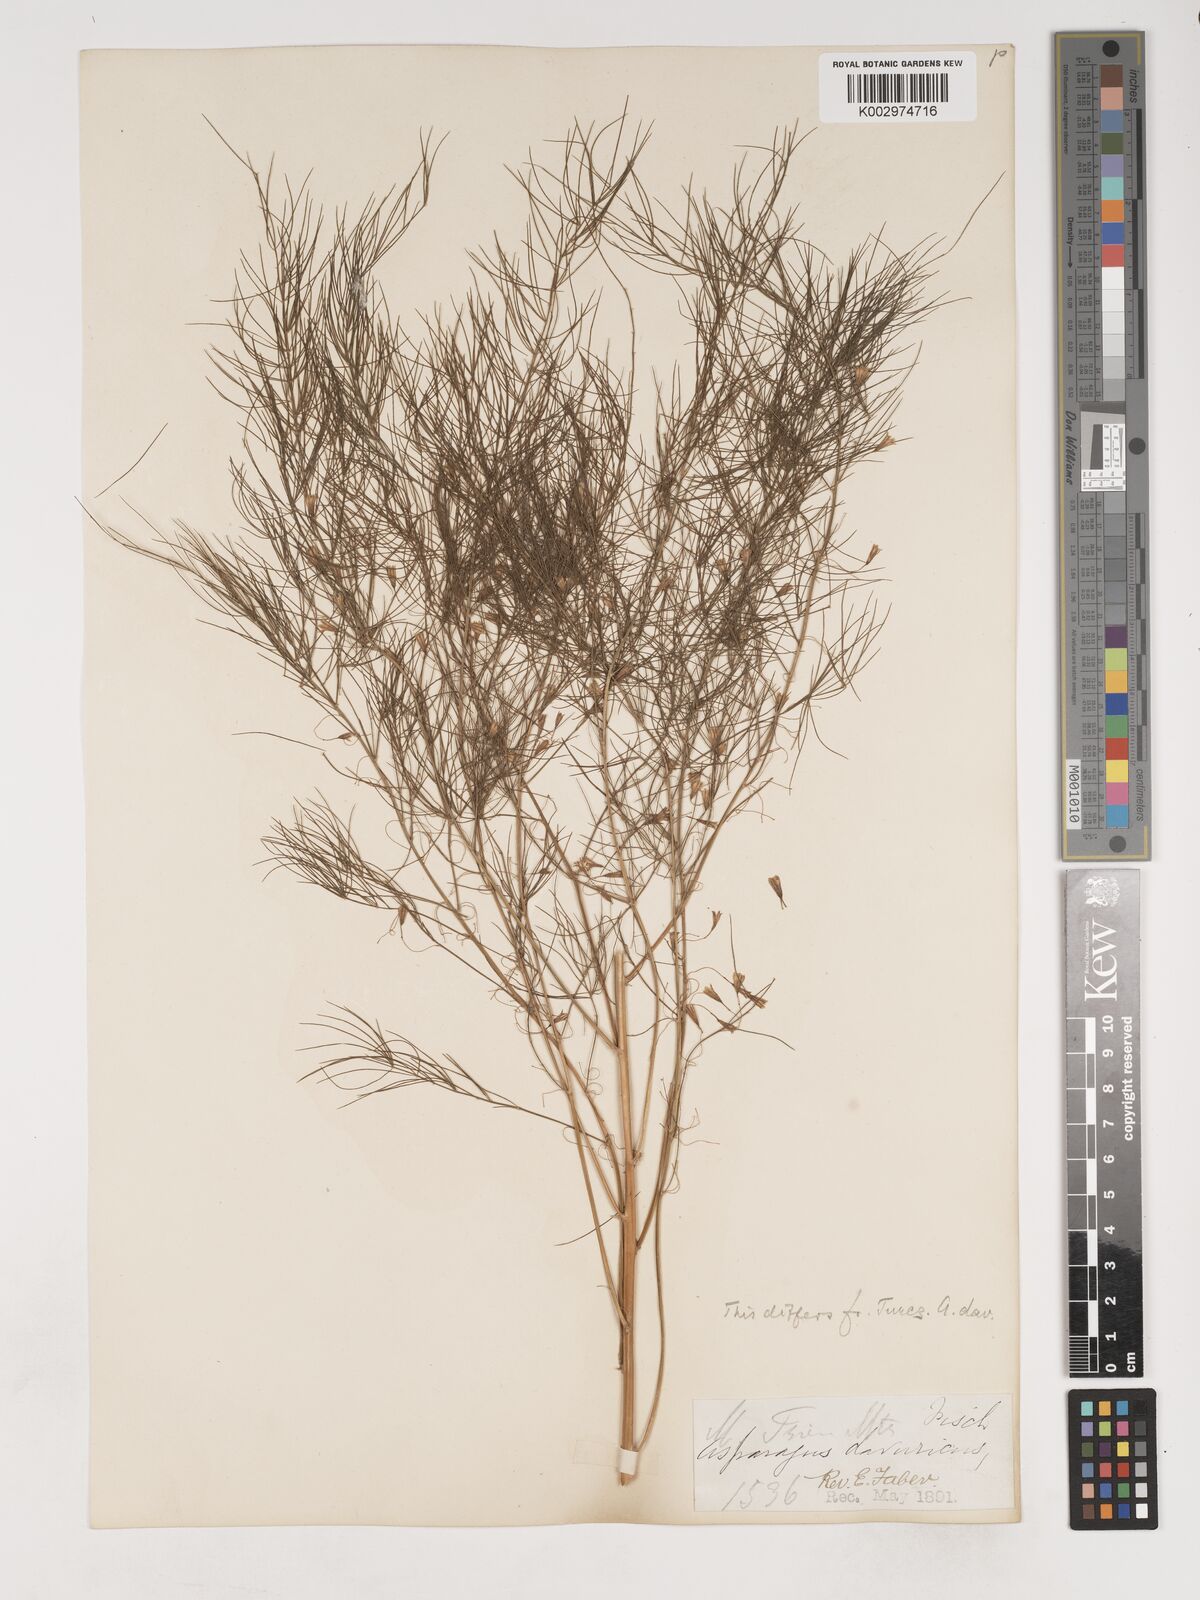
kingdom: Plantae
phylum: Tracheophyta
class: Liliopsida
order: Asparagales
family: Asparagaceae
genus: Asparagus
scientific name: Asparagus oligoclonos
